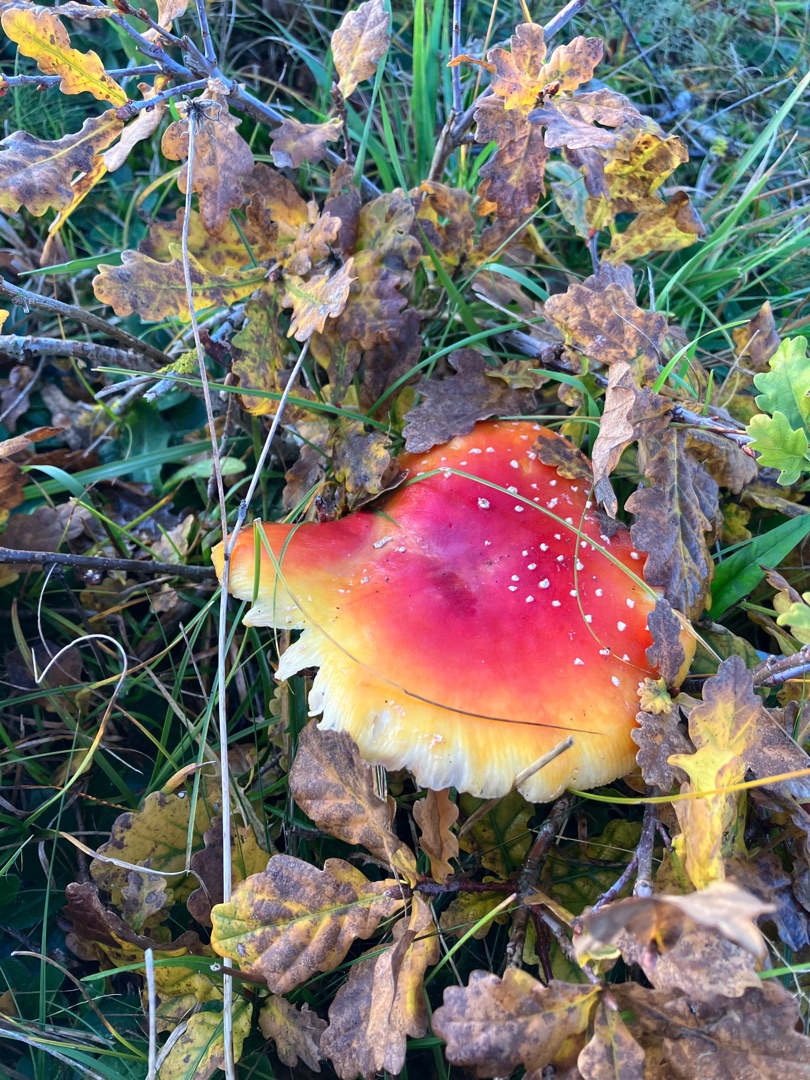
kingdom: Fungi
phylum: Basidiomycota
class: Agaricomycetes
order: Agaricales
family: Amanitaceae
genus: Amanita
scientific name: Amanita muscaria
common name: Rød fluesvamp
